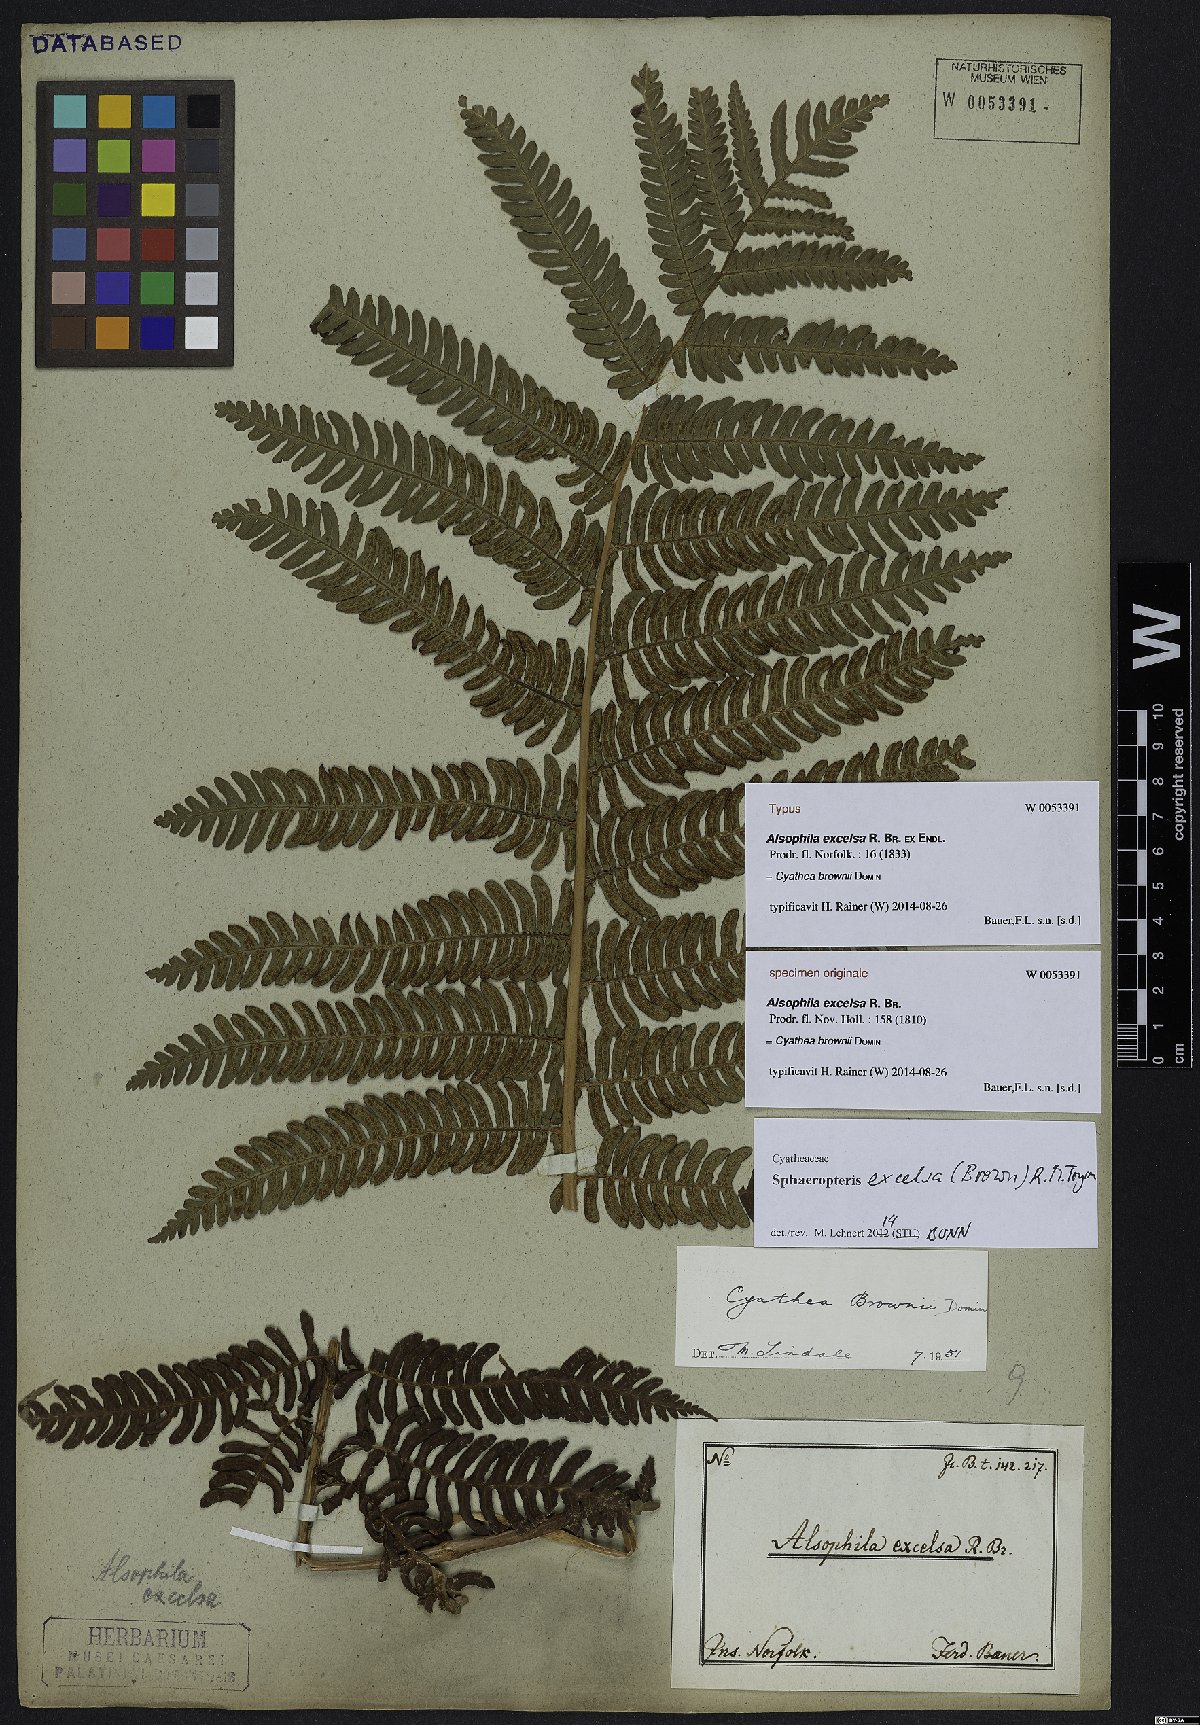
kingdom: Plantae
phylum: Tracheophyta
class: Polypodiopsida
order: Cyatheales
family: Cyatheaceae
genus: Sphaeropteris
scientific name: Sphaeropteris excelsa
